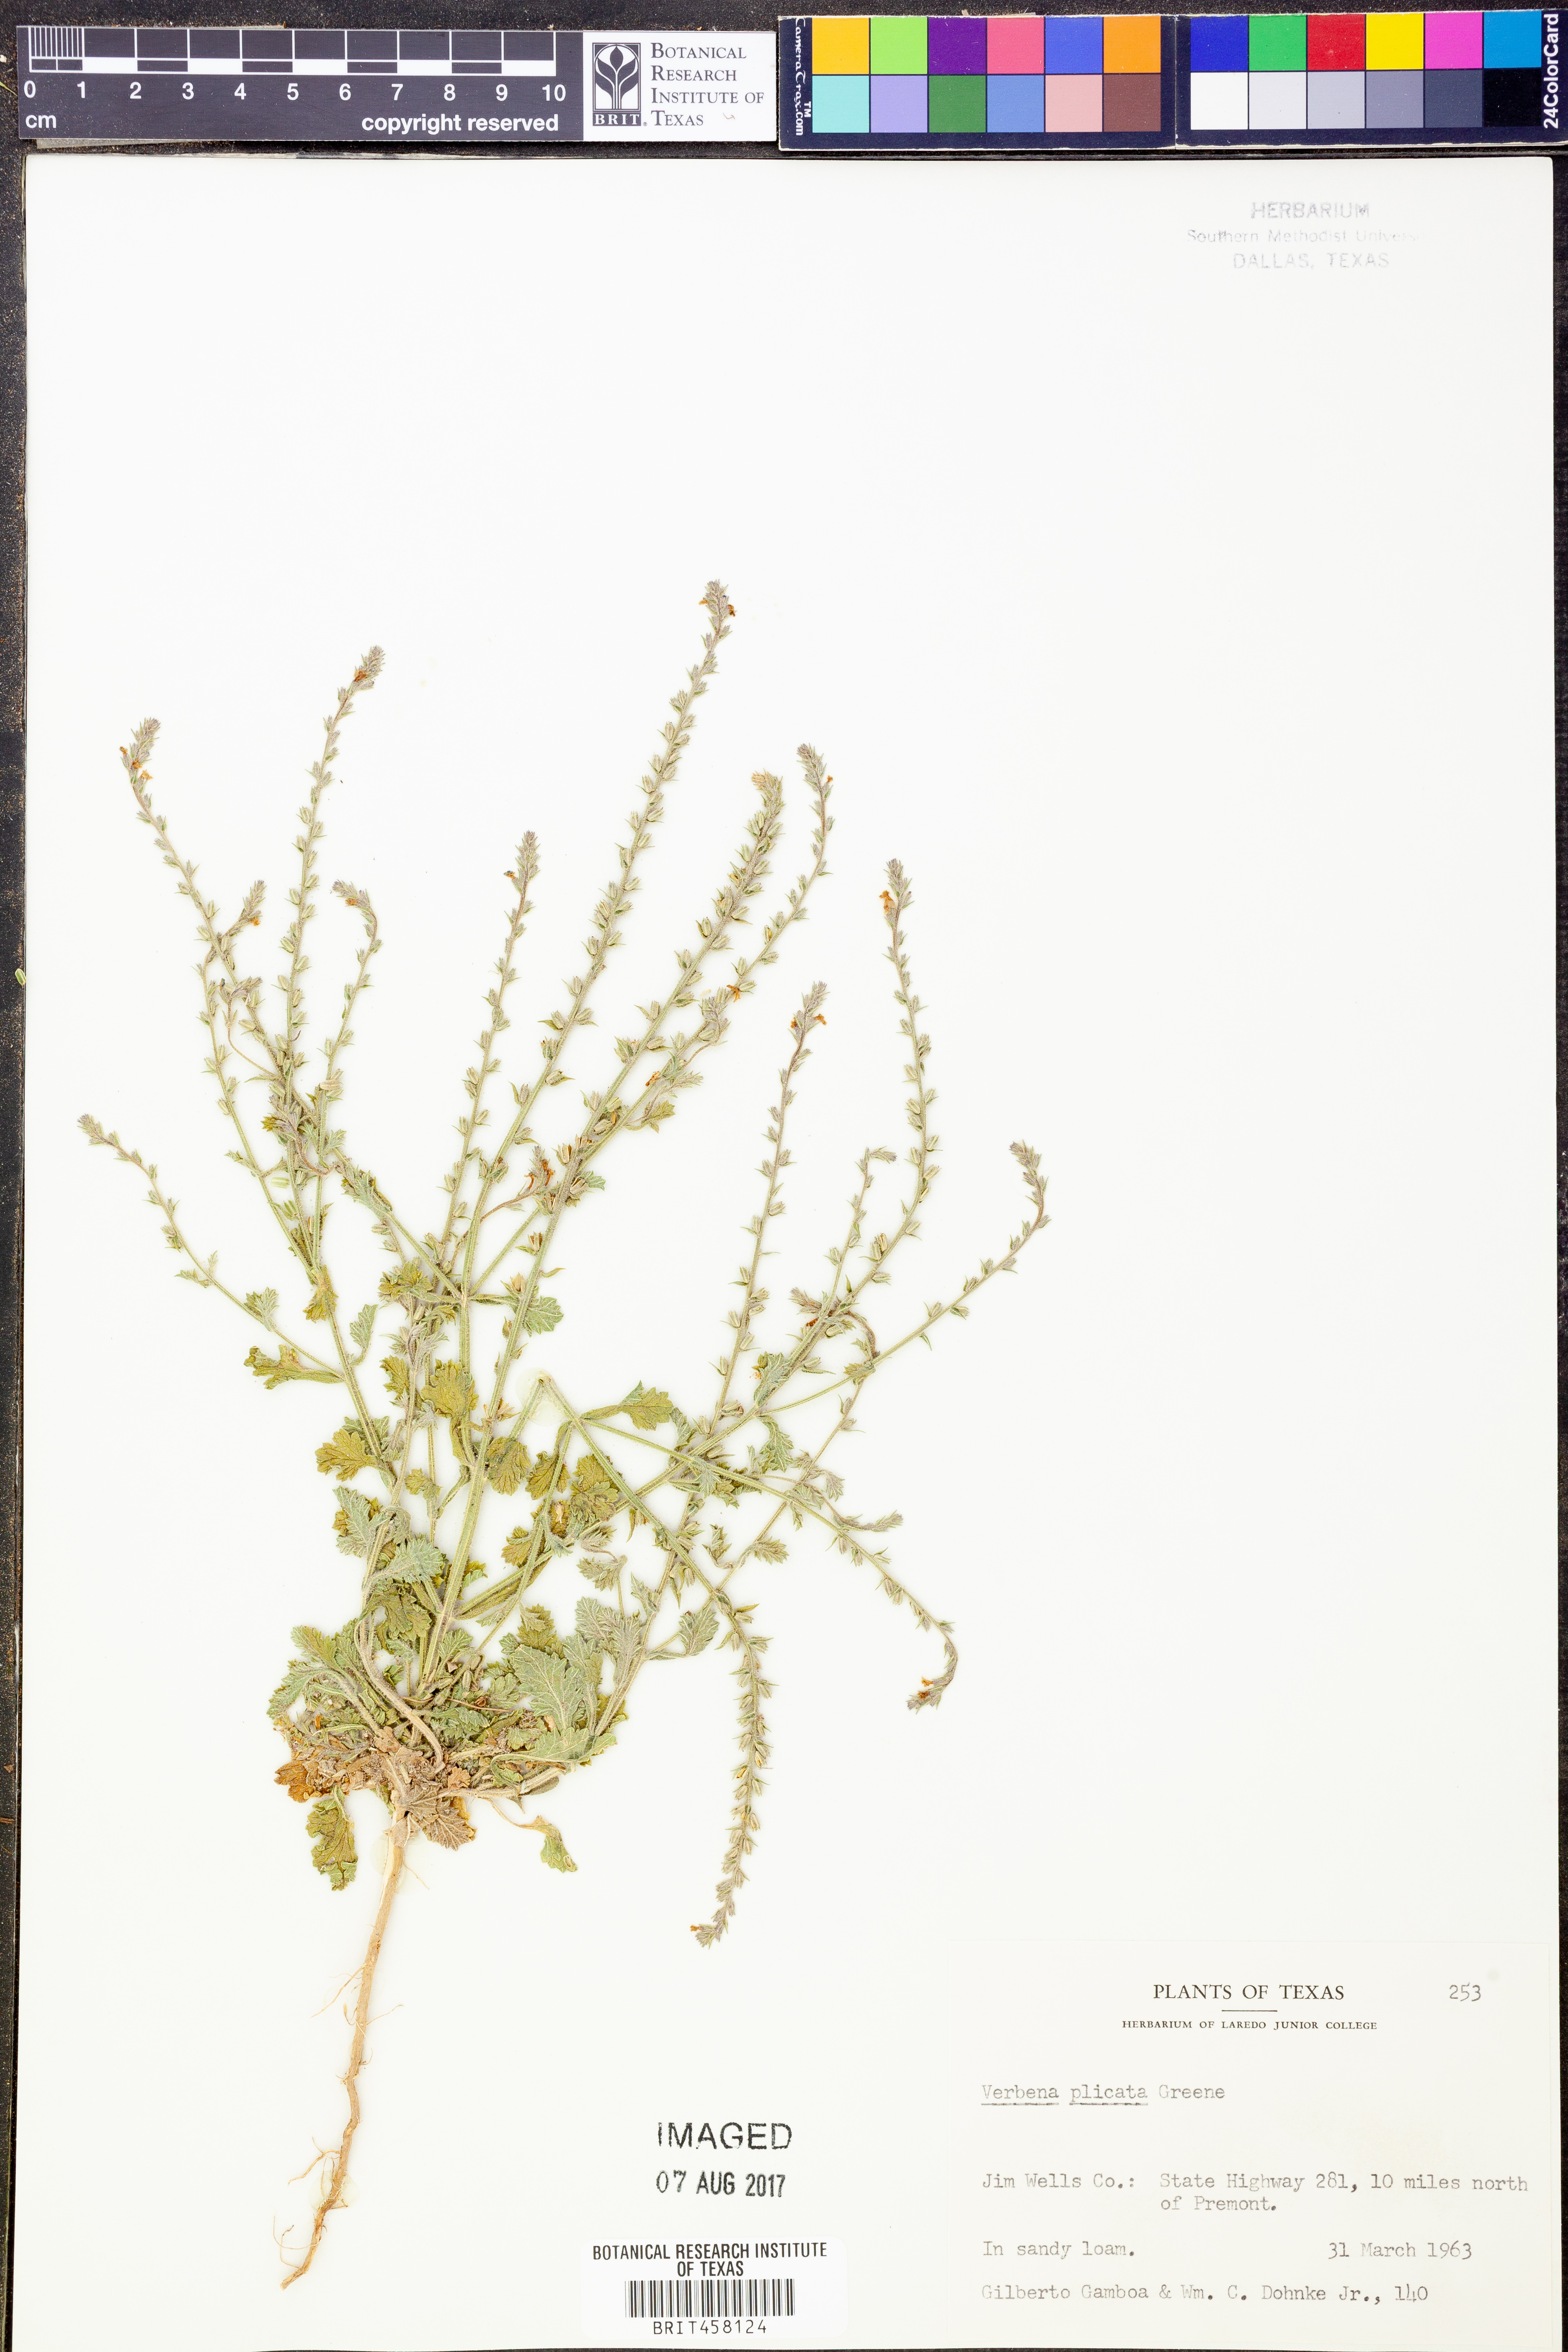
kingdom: Plantae
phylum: Tracheophyta
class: Magnoliopsida
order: Lamiales
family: Verbenaceae
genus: Verbena
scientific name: Verbena plicata
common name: Fan-leaf vervain
